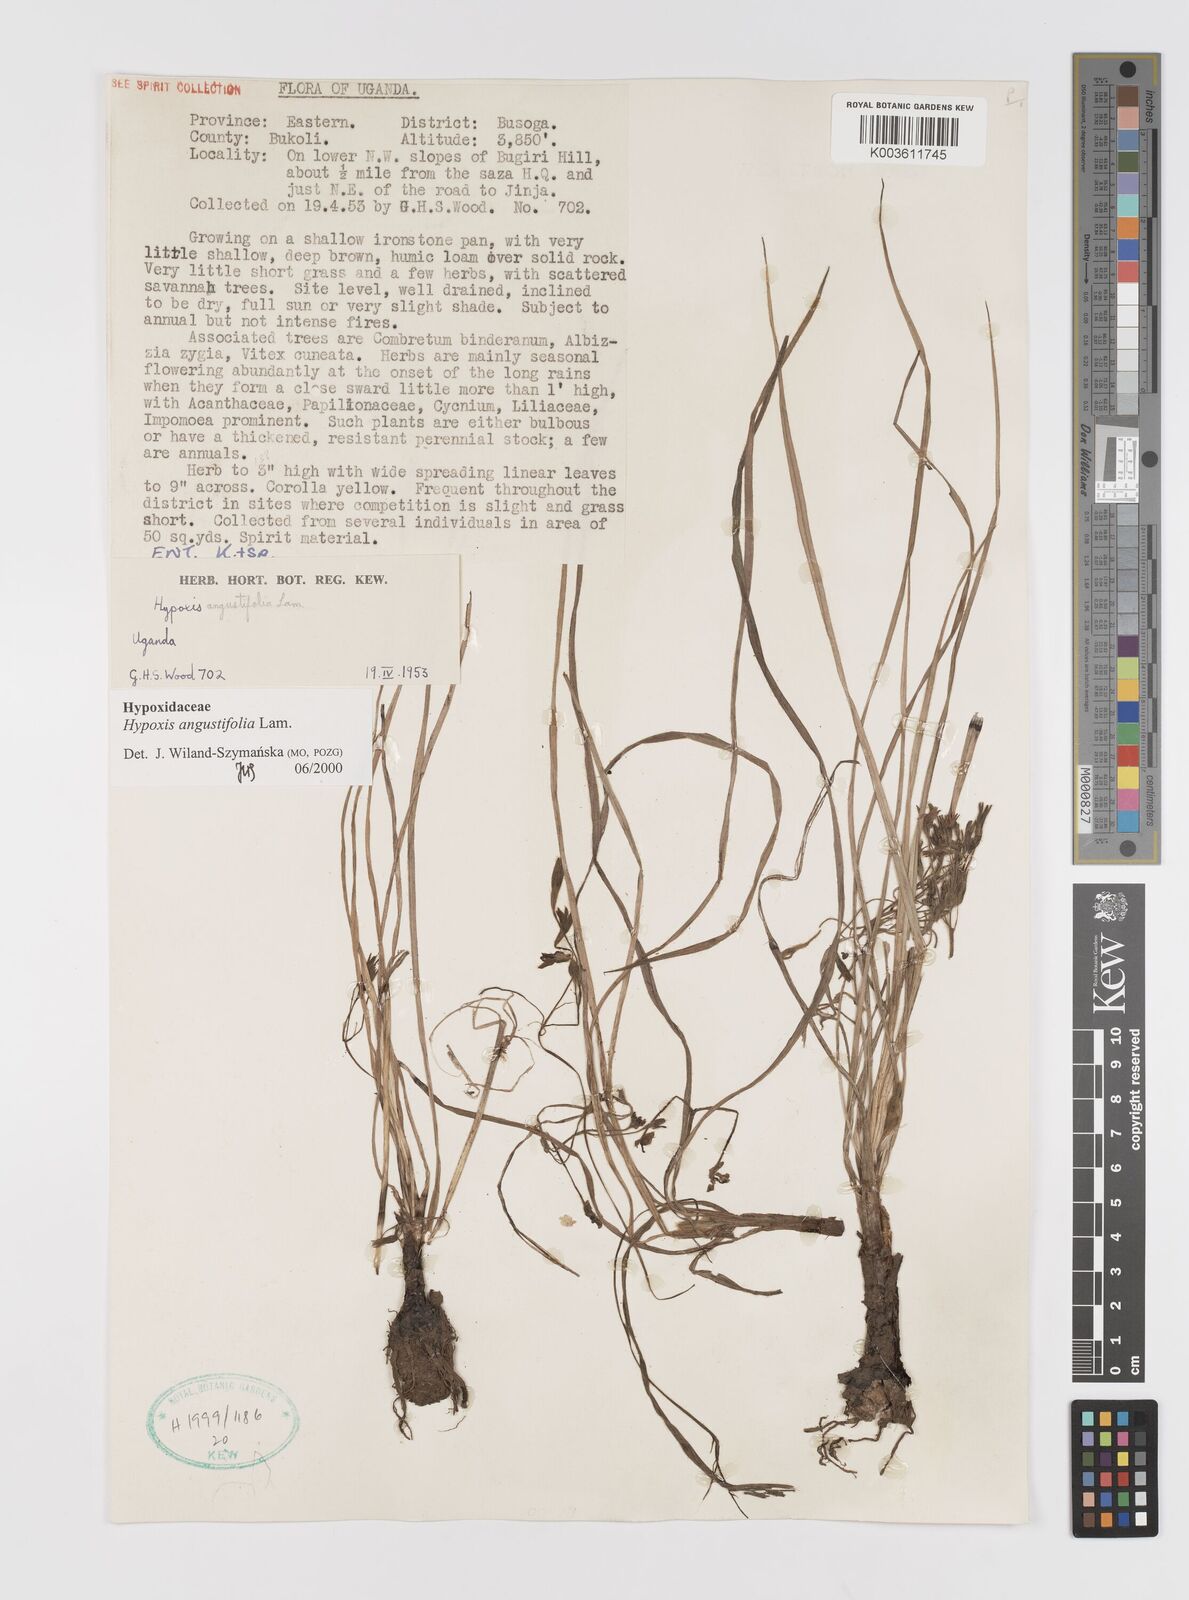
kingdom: Plantae
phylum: Tracheophyta
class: Liliopsida
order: Asparagales
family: Hypoxidaceae
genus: Hypoxis
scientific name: Hypoxis angustifolia
